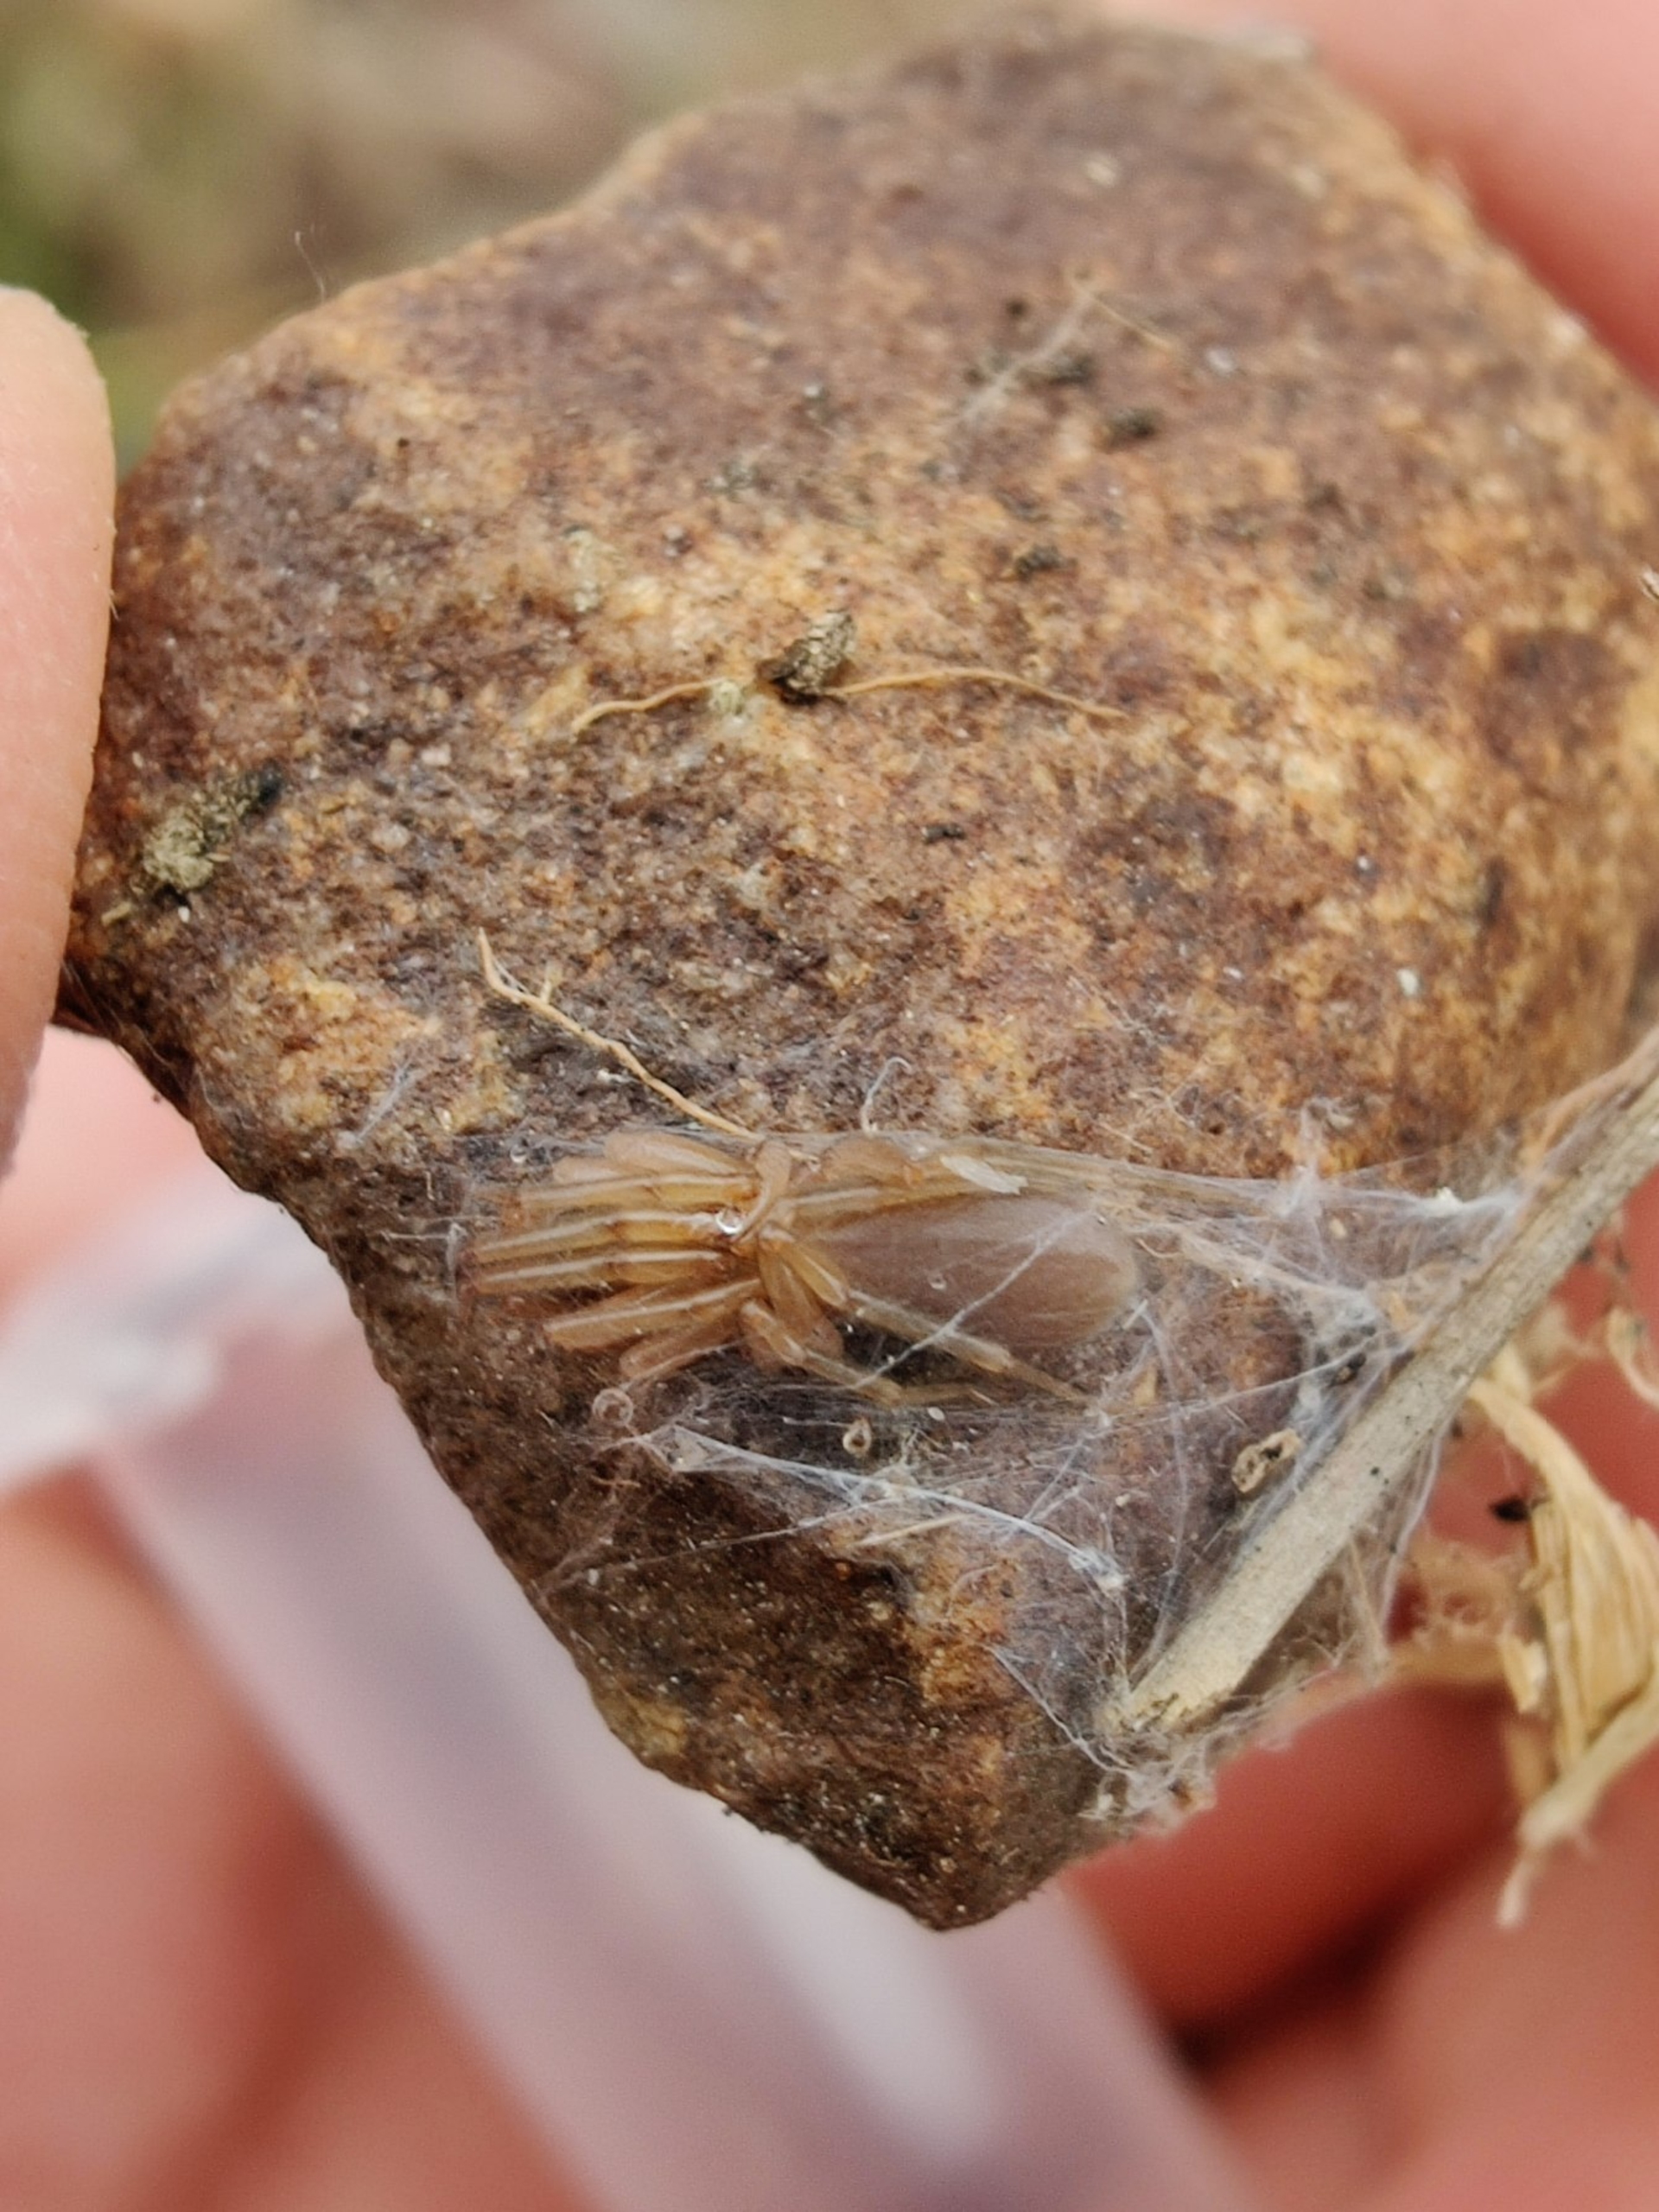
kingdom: Animalia
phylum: Arthropoda
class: Arachnida
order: Araneae
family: Dysderidae
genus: Harpactea
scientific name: Harpactea rubicunda
